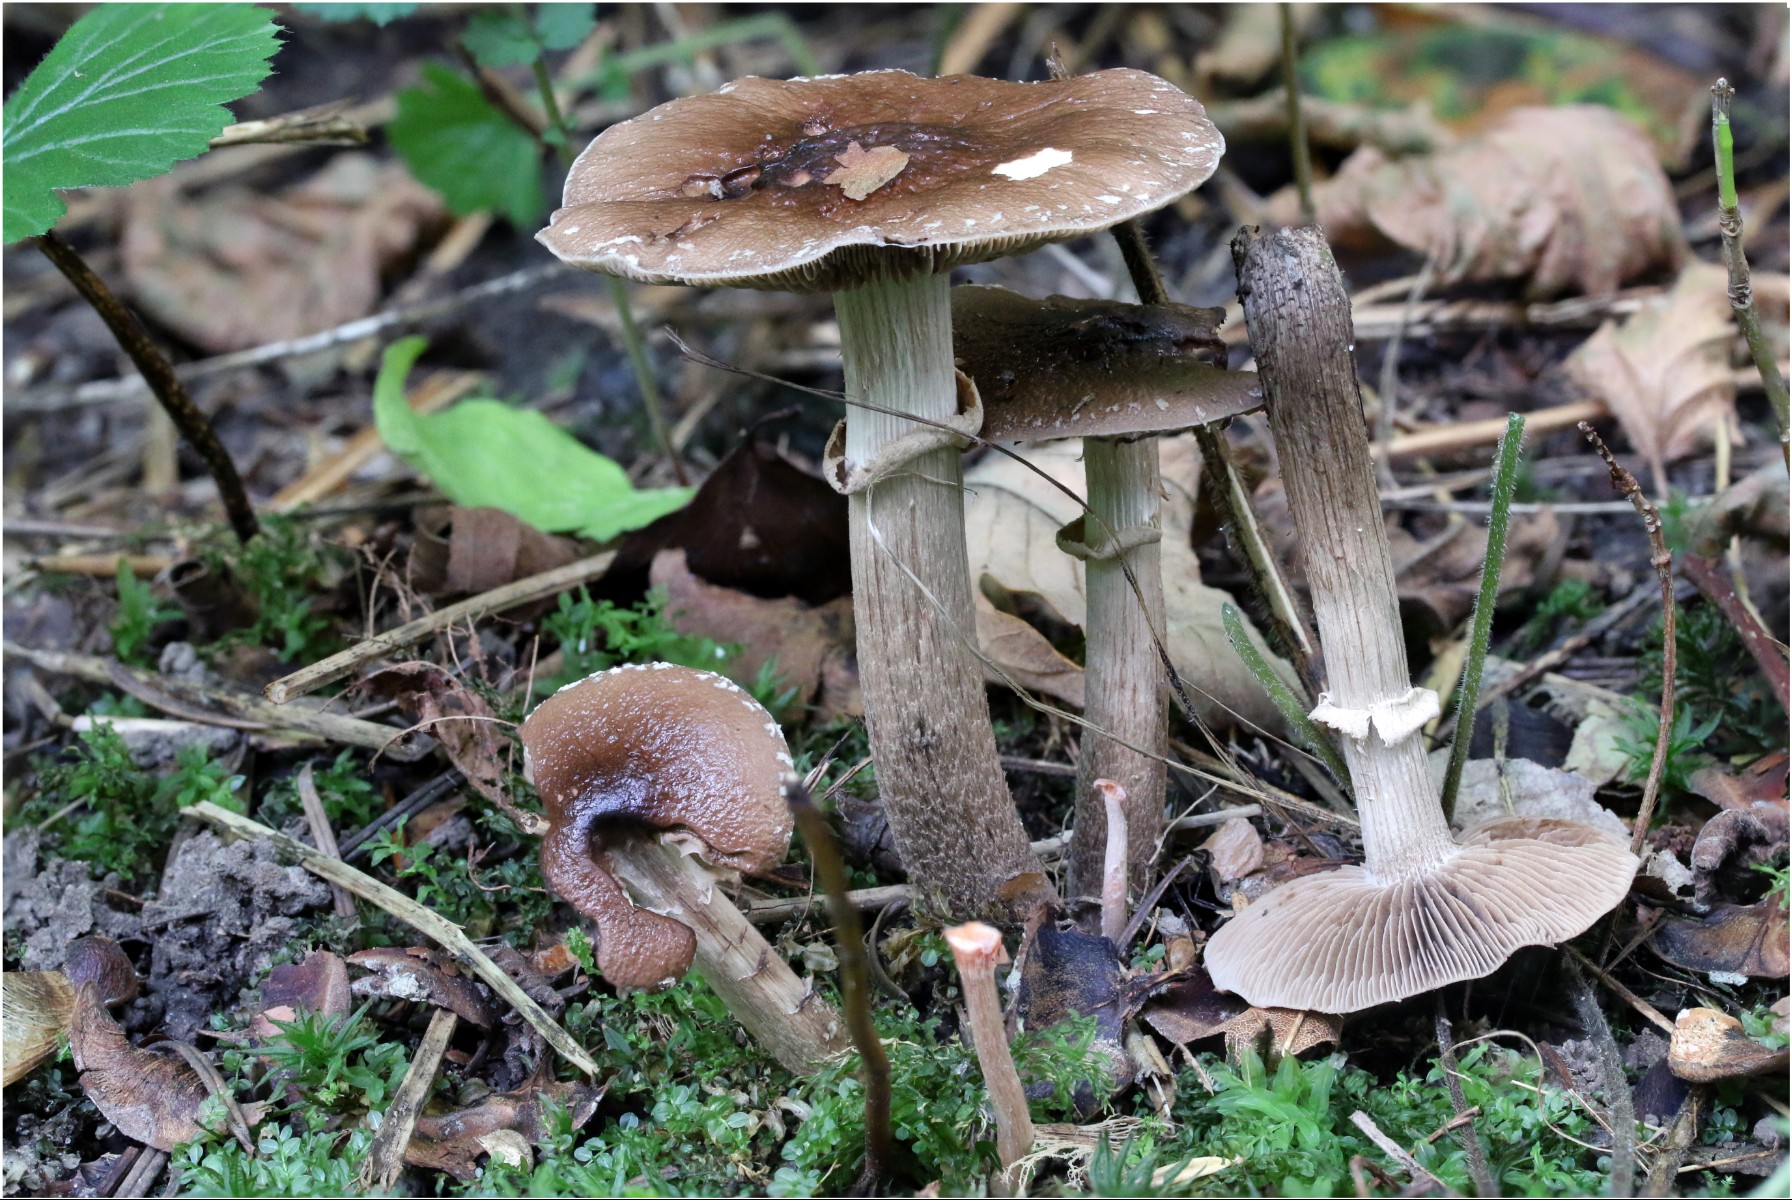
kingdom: Fungi
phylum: Basidiomycota
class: Agaricomycetes
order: Agaricales
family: Tubariaceae
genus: Cyclocybe
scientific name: Cyclocybe erebia
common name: mørk agerhat
